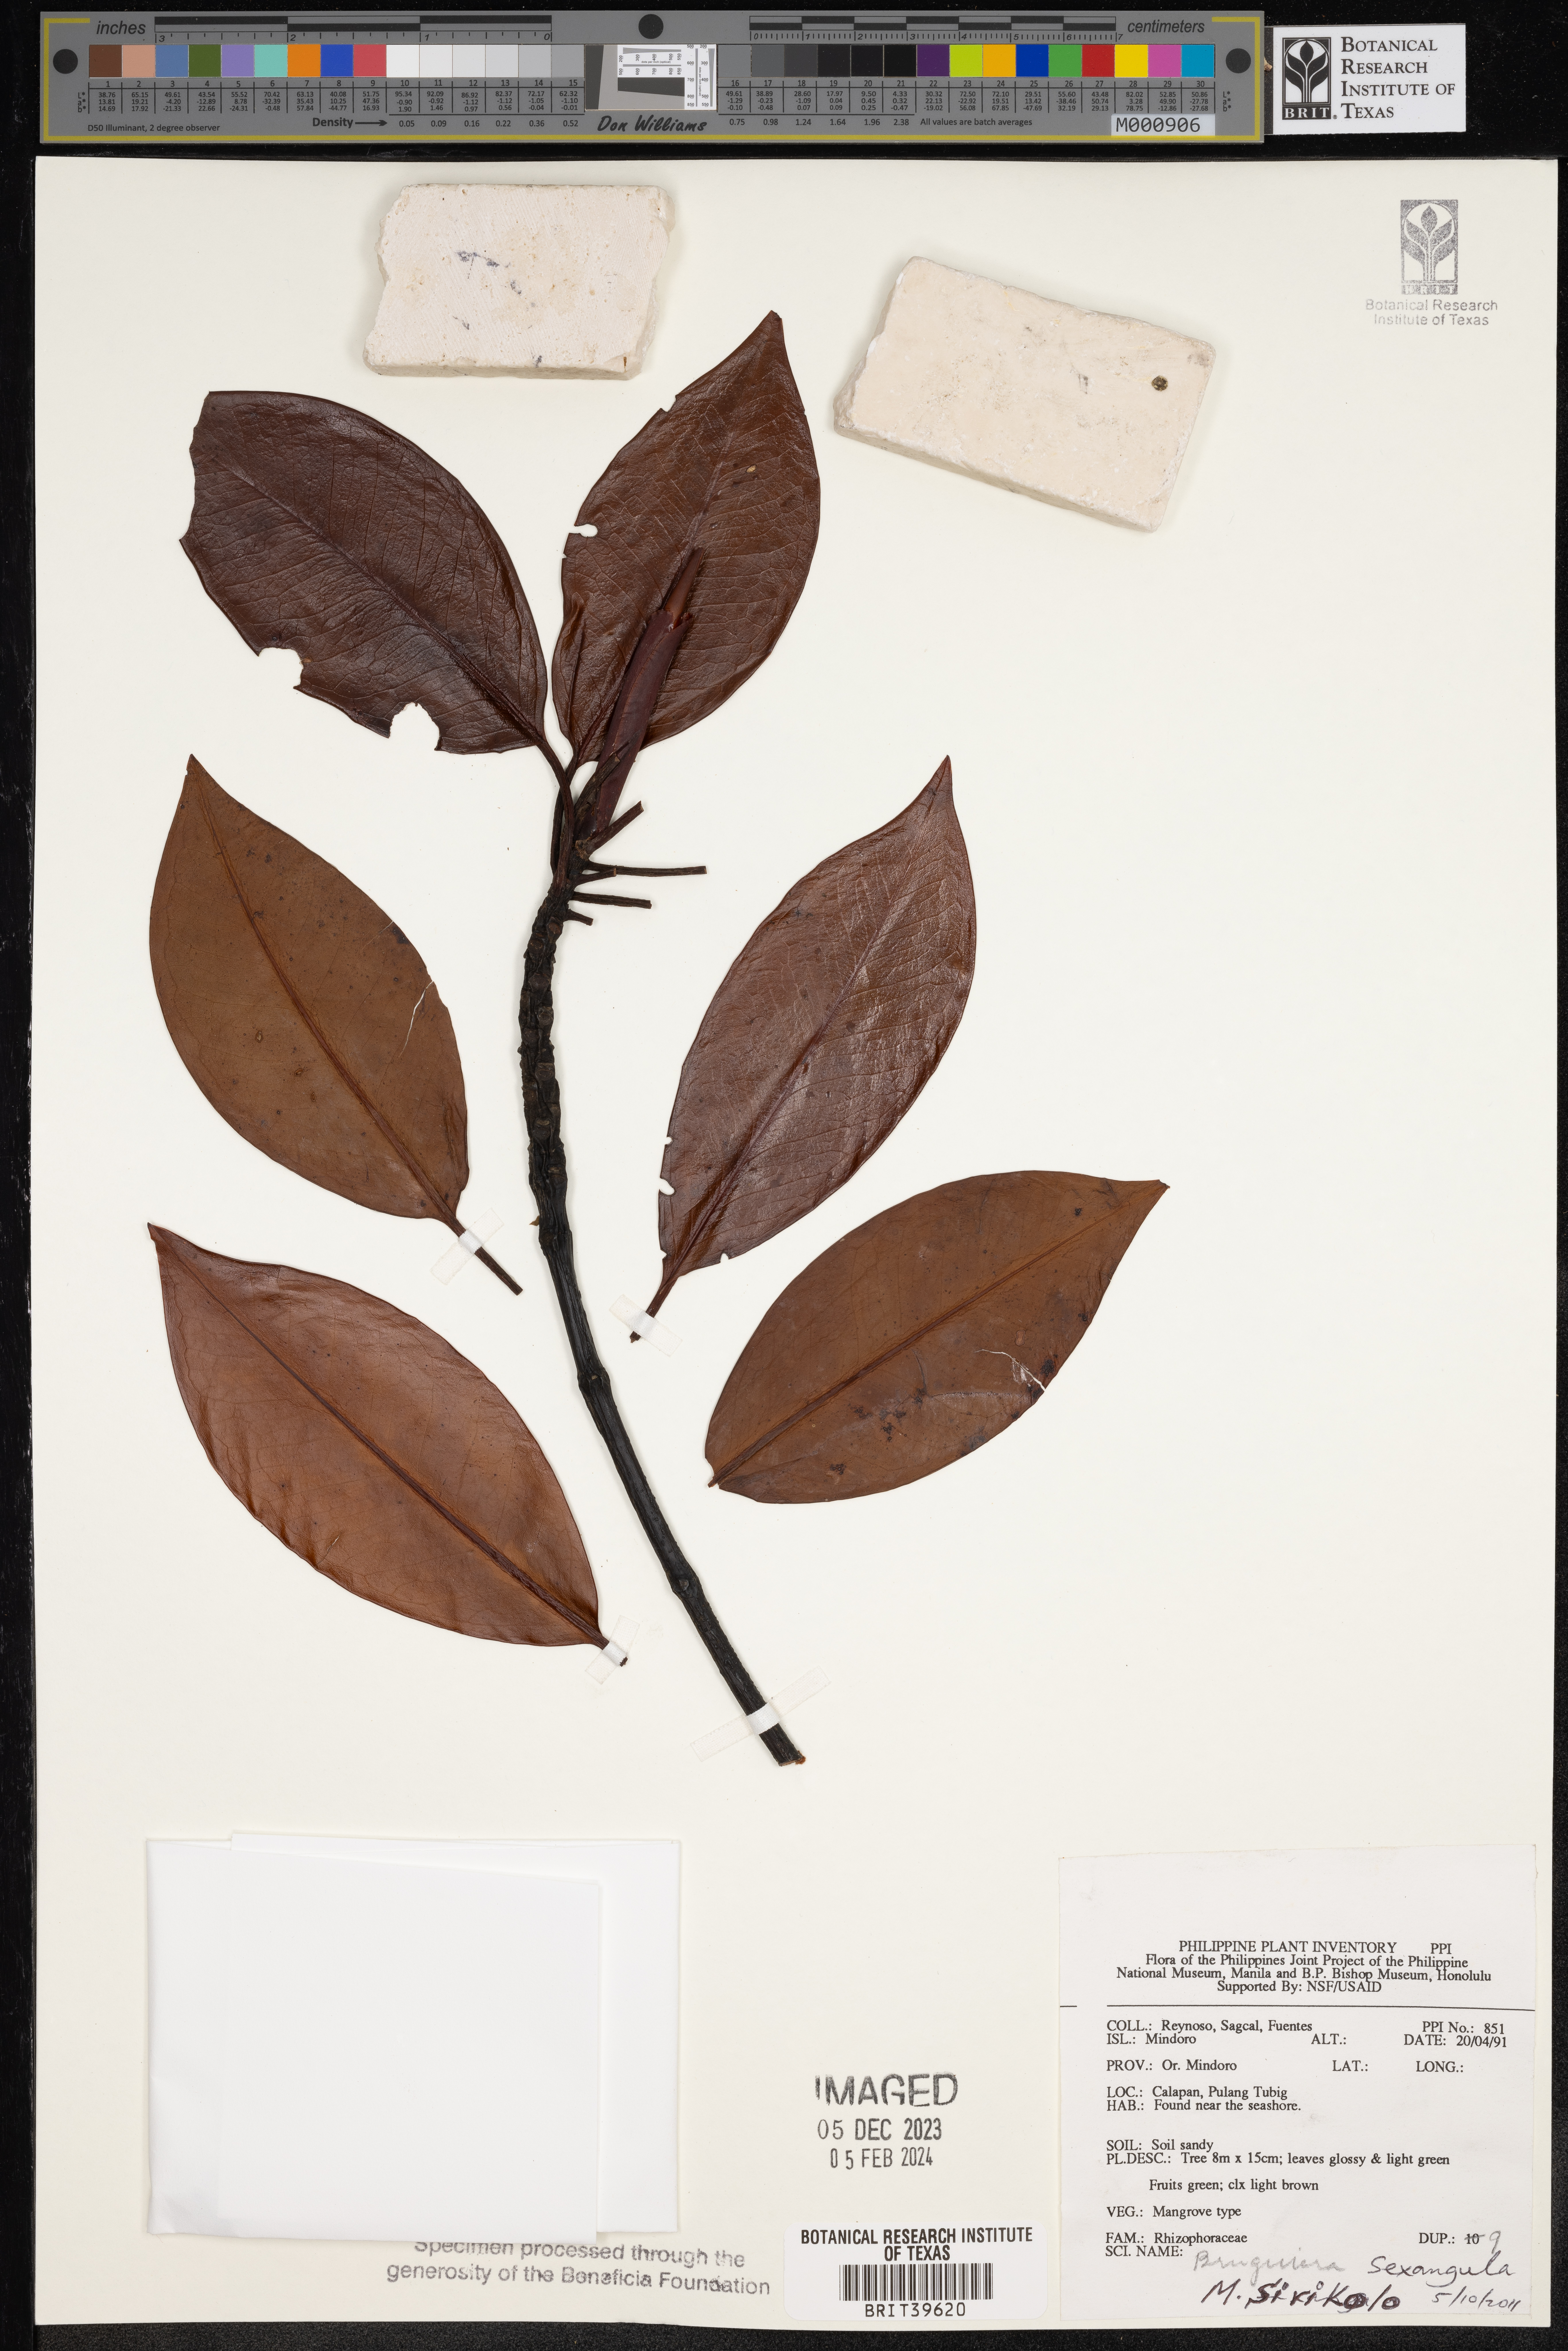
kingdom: Plantae
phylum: Tracheophyta
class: Magnoliopsida
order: Malpighiales
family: Rhizophoraceae
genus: Bruguiera
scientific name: Bruguiera sexangula
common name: Oriental mangrove
